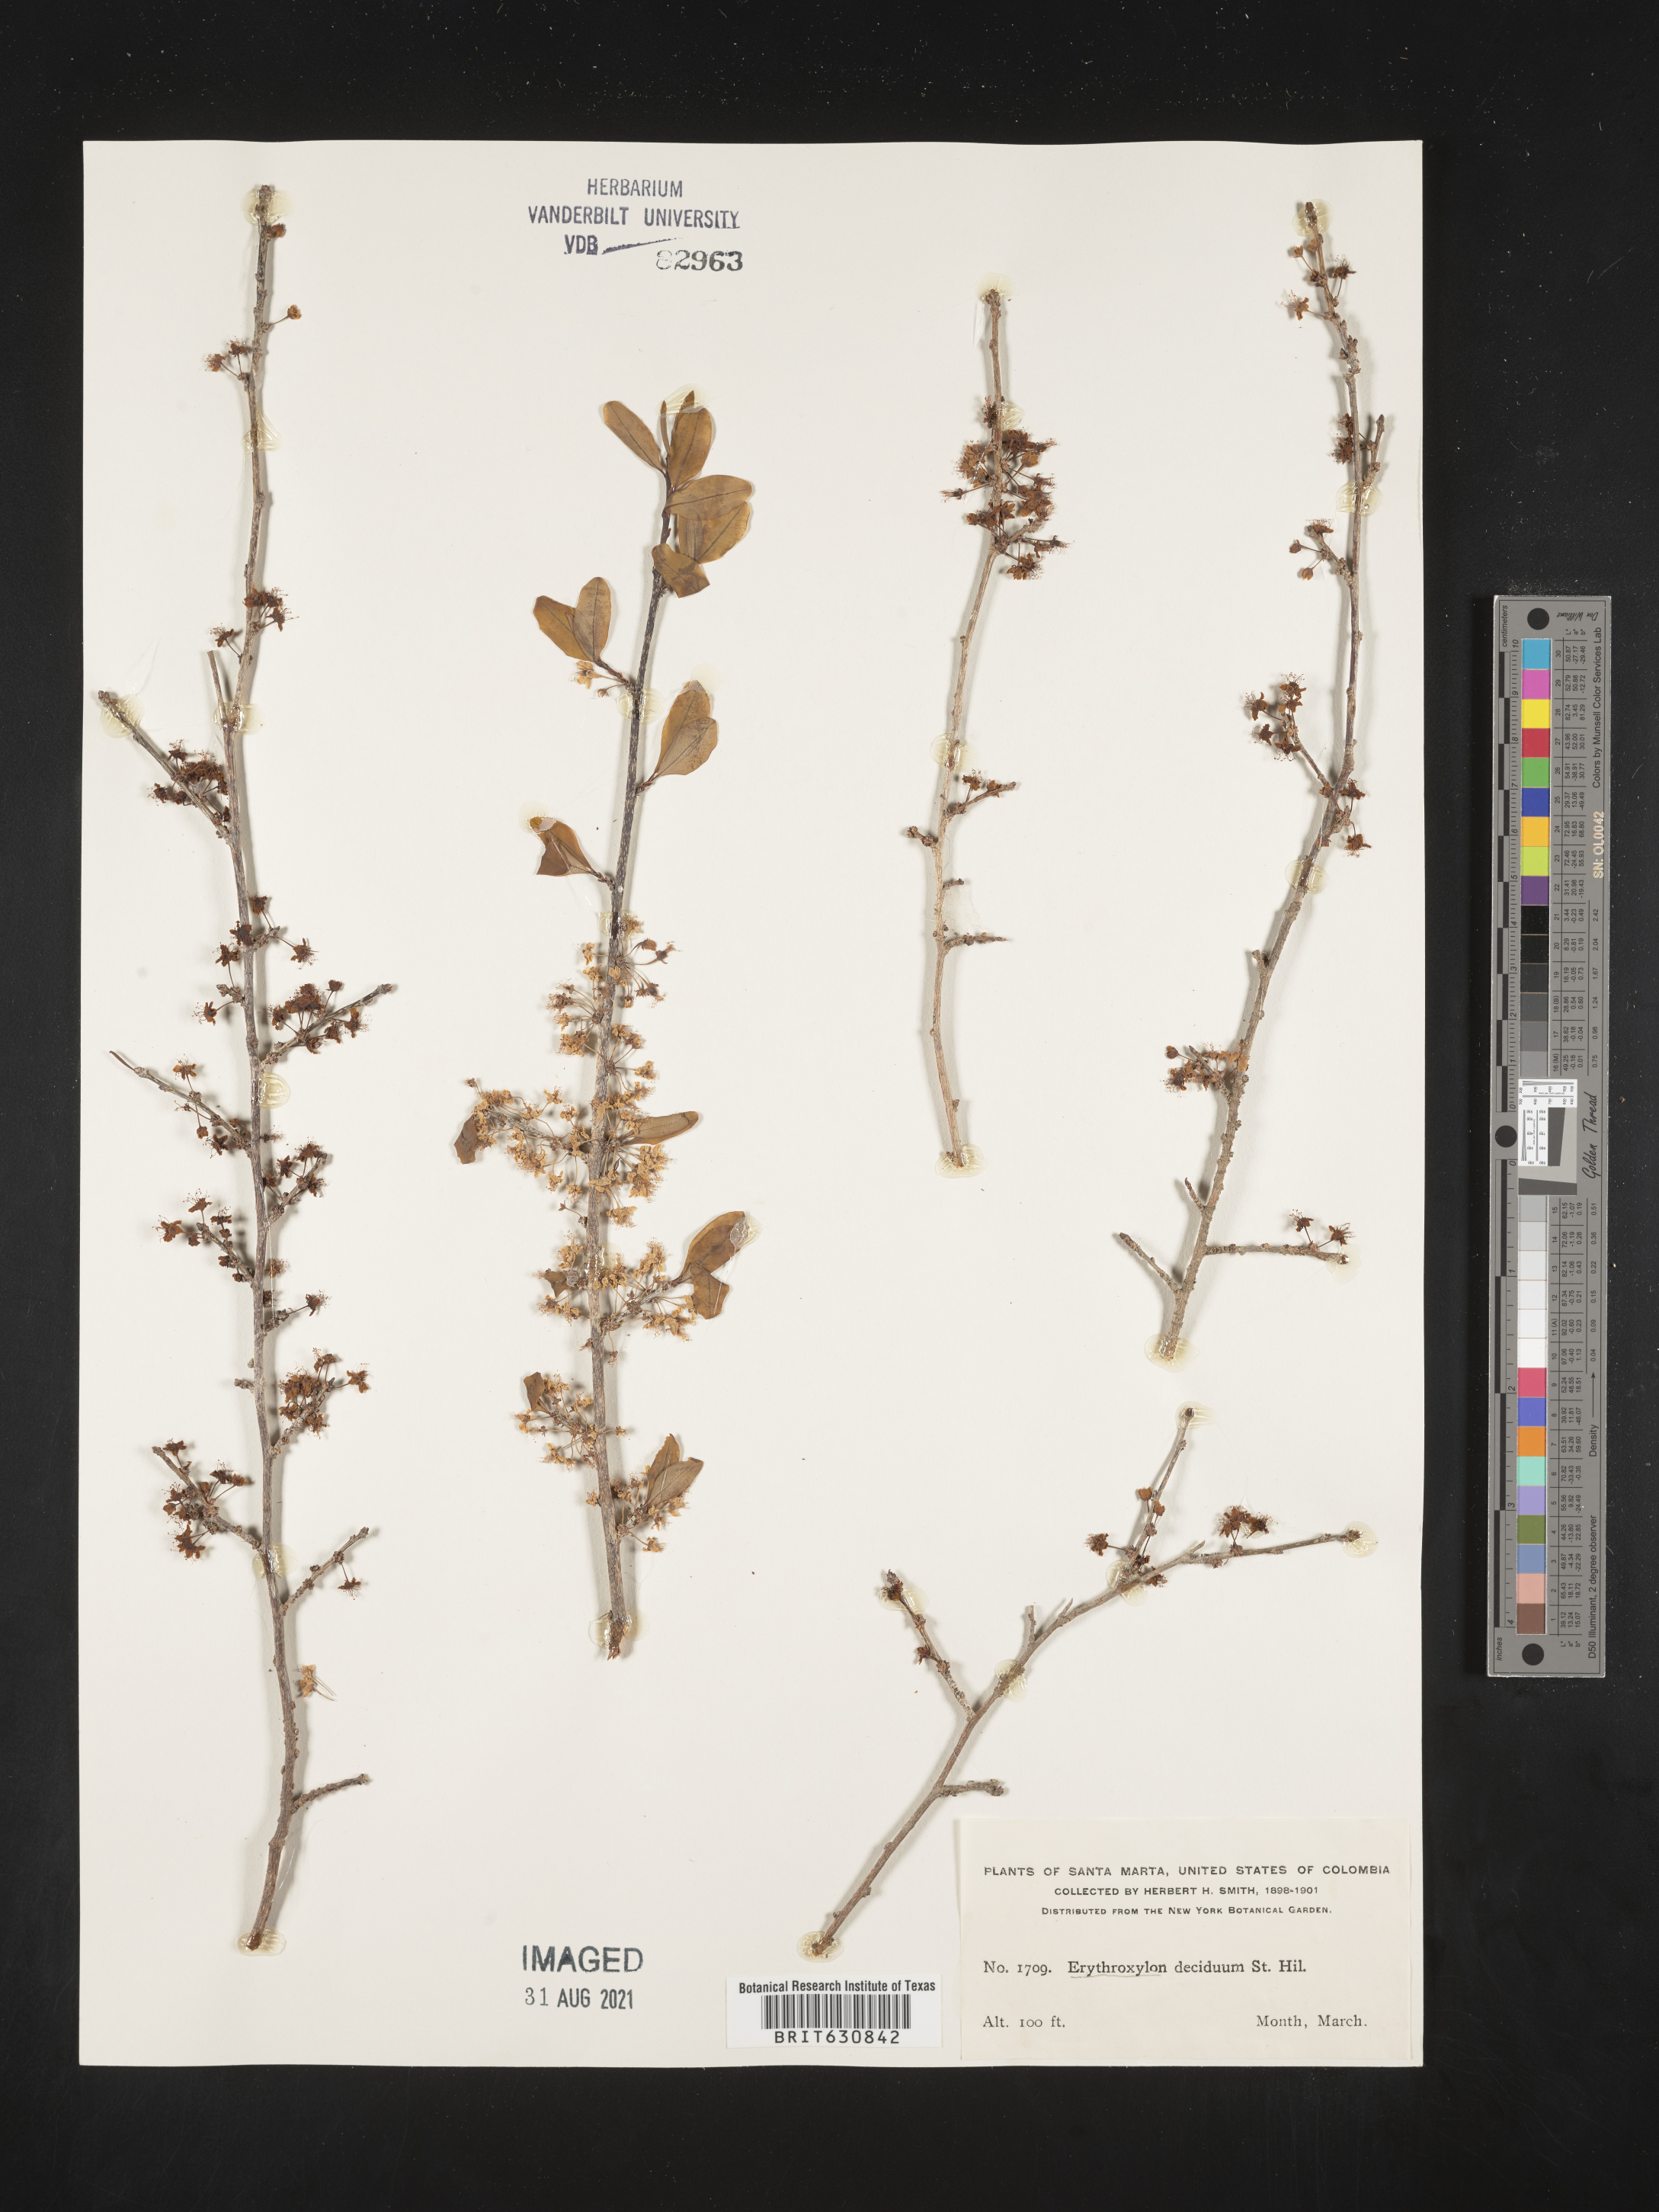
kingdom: Plantae
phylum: Tracheophyta
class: Magnoliopsida
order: Malpighiales
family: Erythroxylaceae
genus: Erythroxylum
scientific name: Erythroxylum
